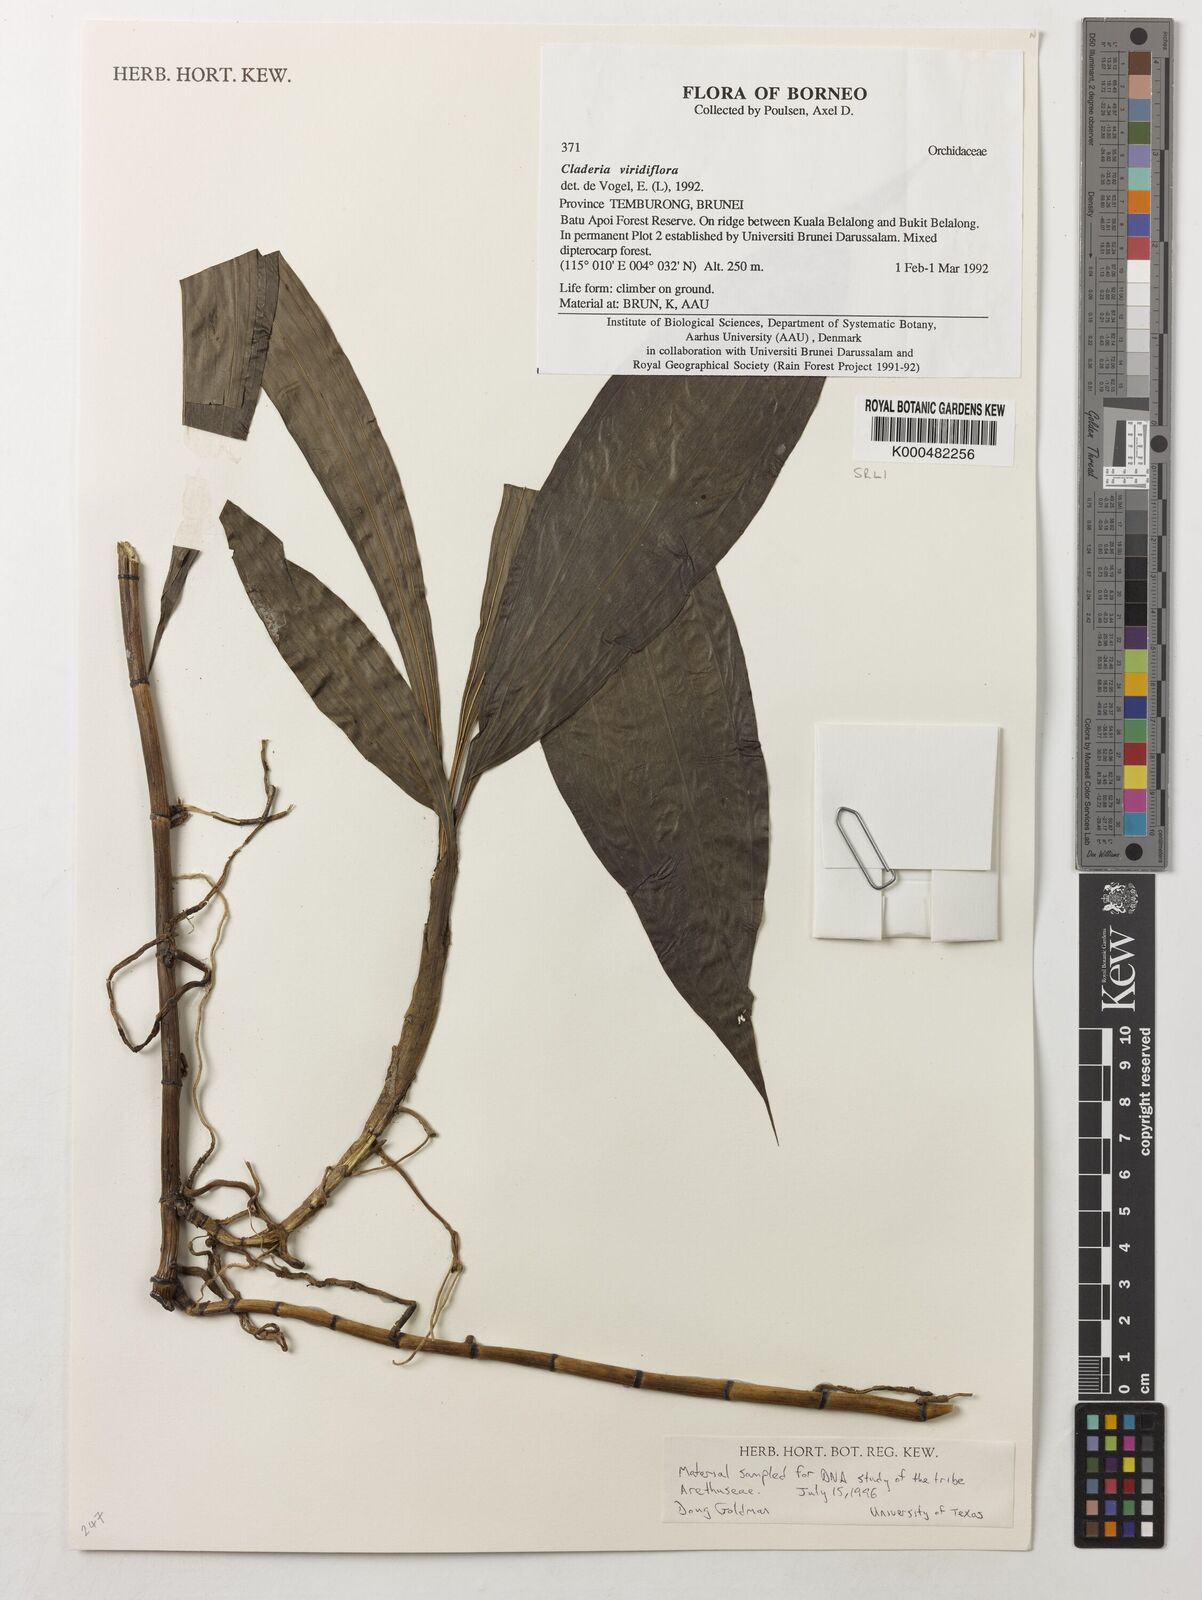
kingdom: Plantae
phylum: Tracheophyta
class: Liliopsida
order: Asparagales
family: Orchidaceae
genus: Claderia
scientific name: Claderia
